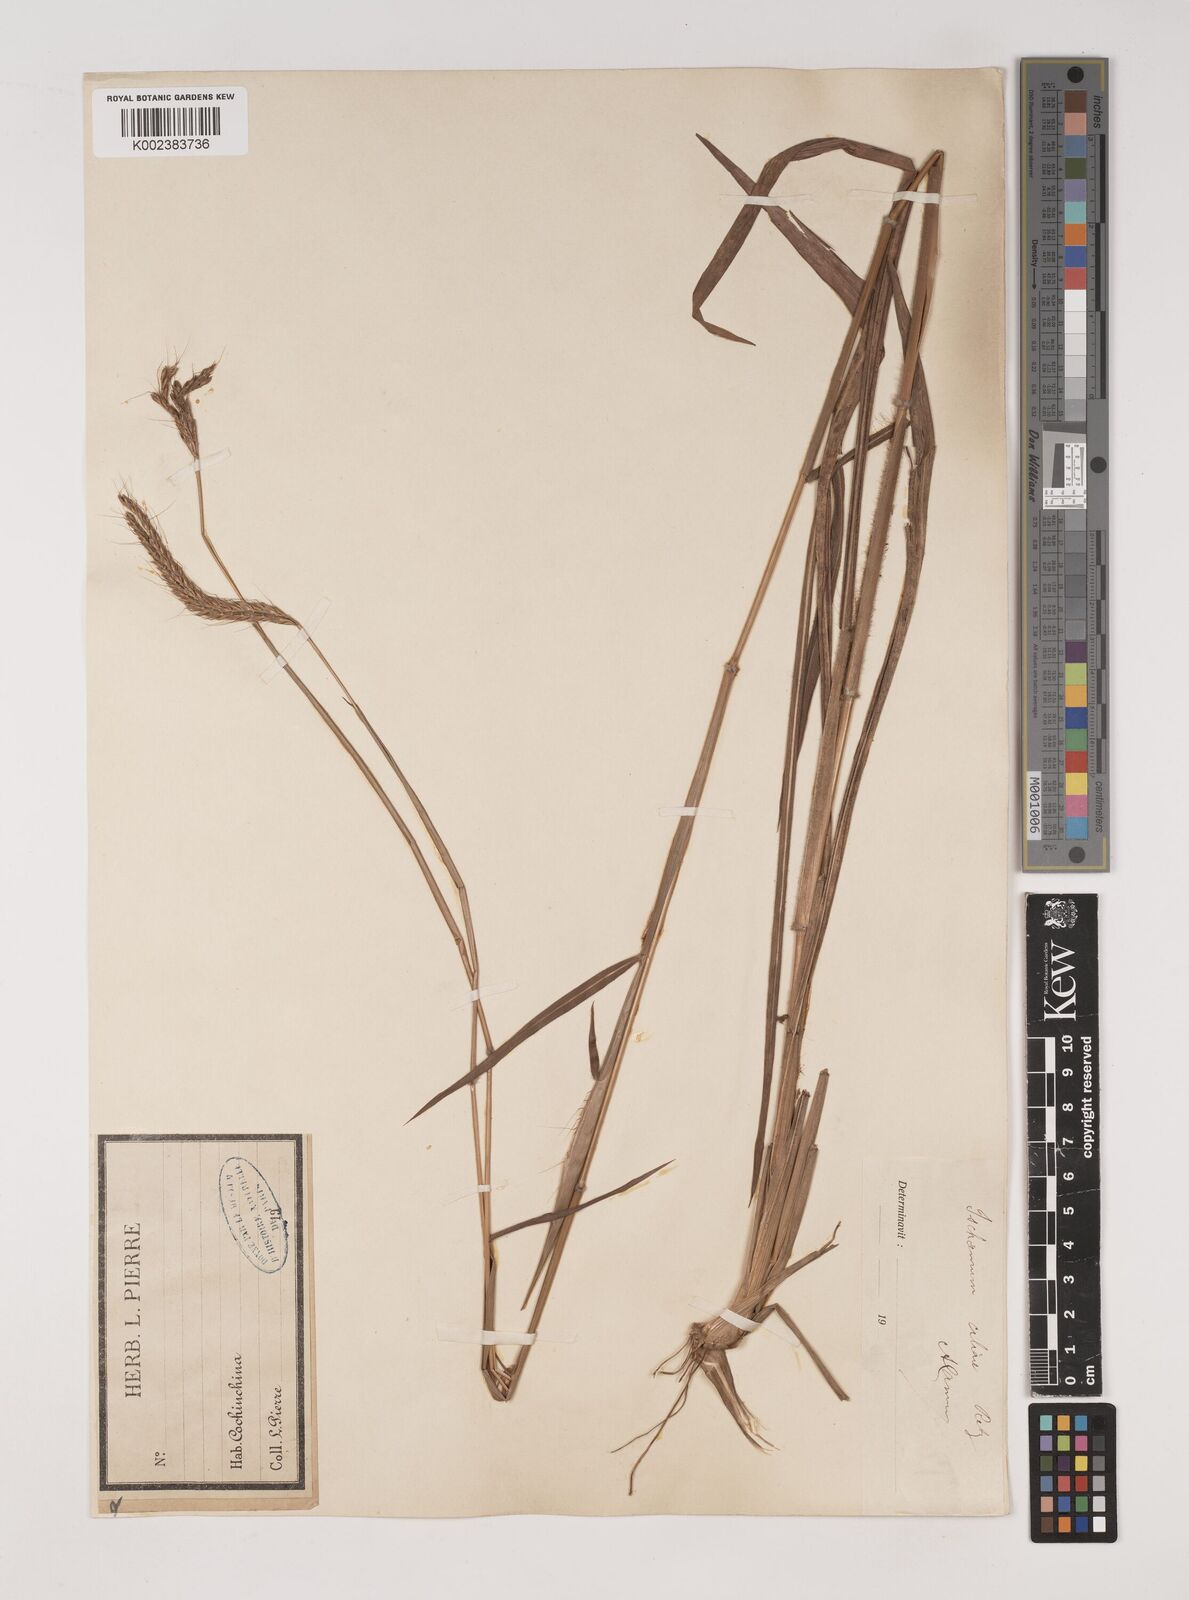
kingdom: Plantae
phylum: Tracheophyta
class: Liliopsida
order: Poales
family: Poaceae
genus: Ischaemum
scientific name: Ischaemum ciliare
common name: Grass
